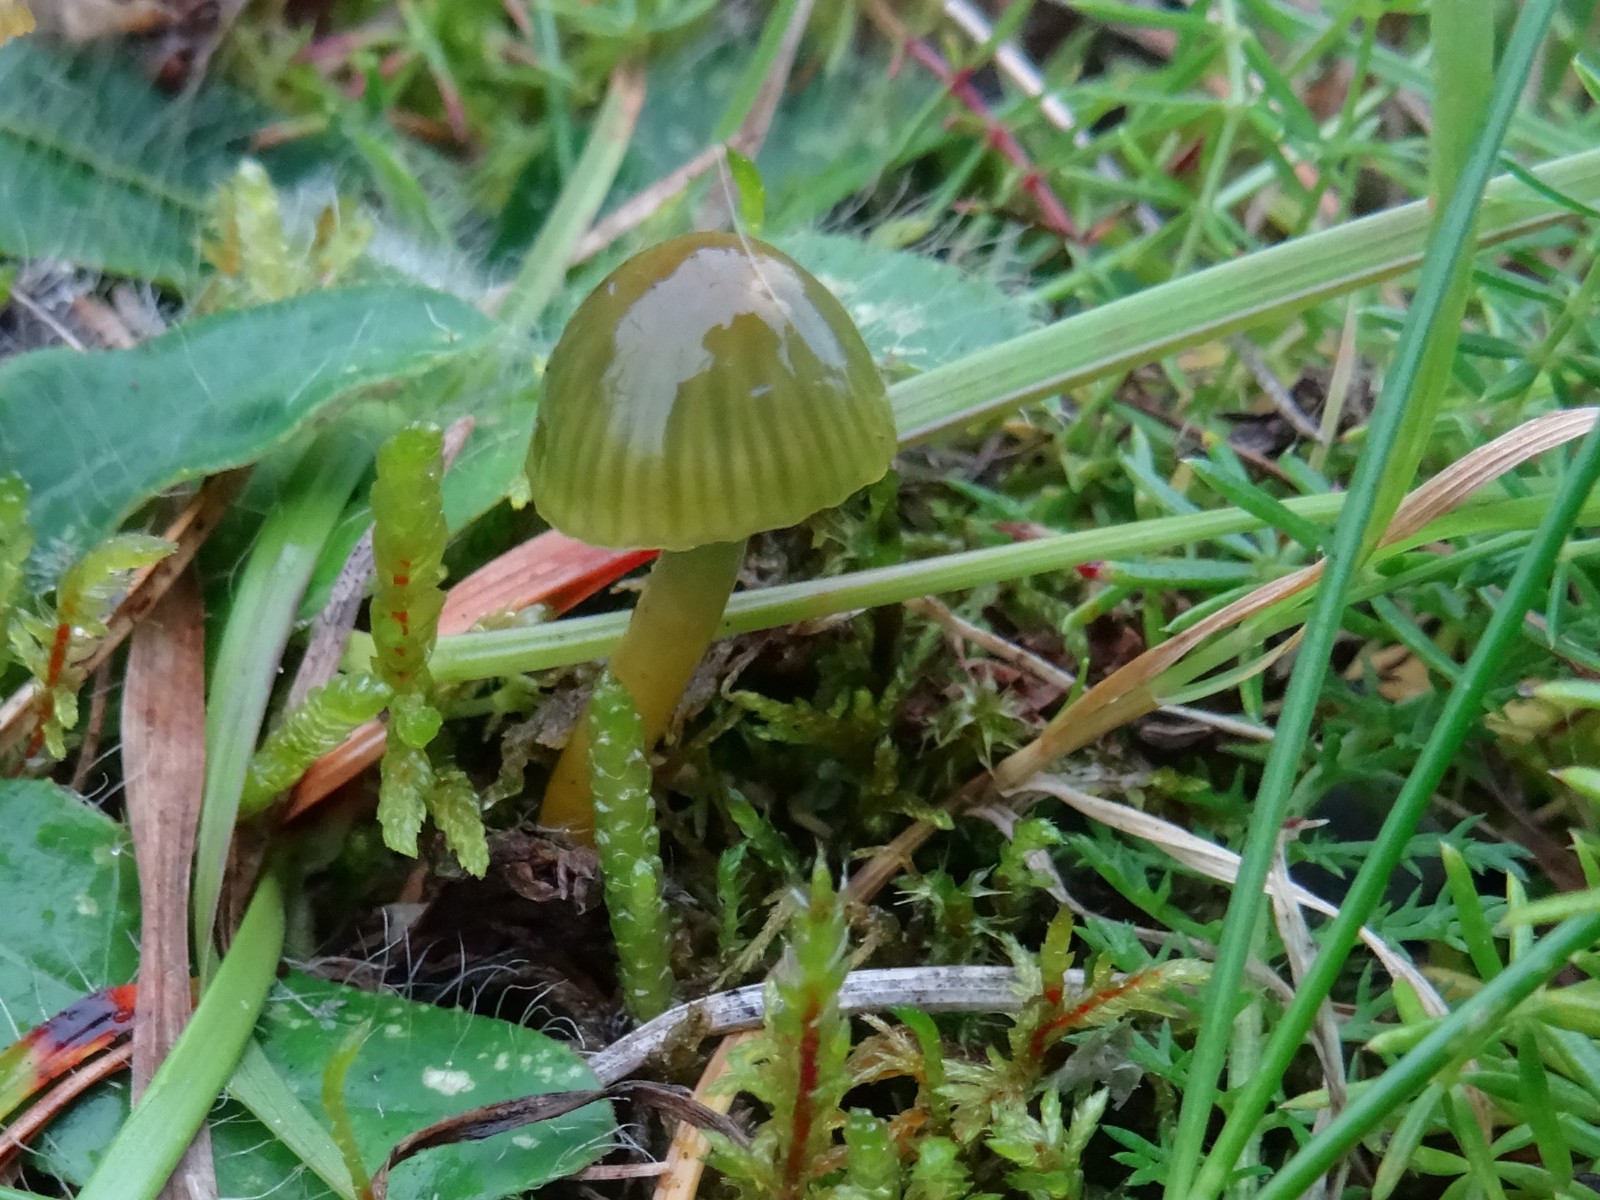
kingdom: Fungi
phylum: Basidiomycota
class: Agaricomycetes
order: Agaricales
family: Hygrophoraceae
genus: Gliophorus
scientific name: Gliophorus psittacinus
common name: papegøje-vokshat
